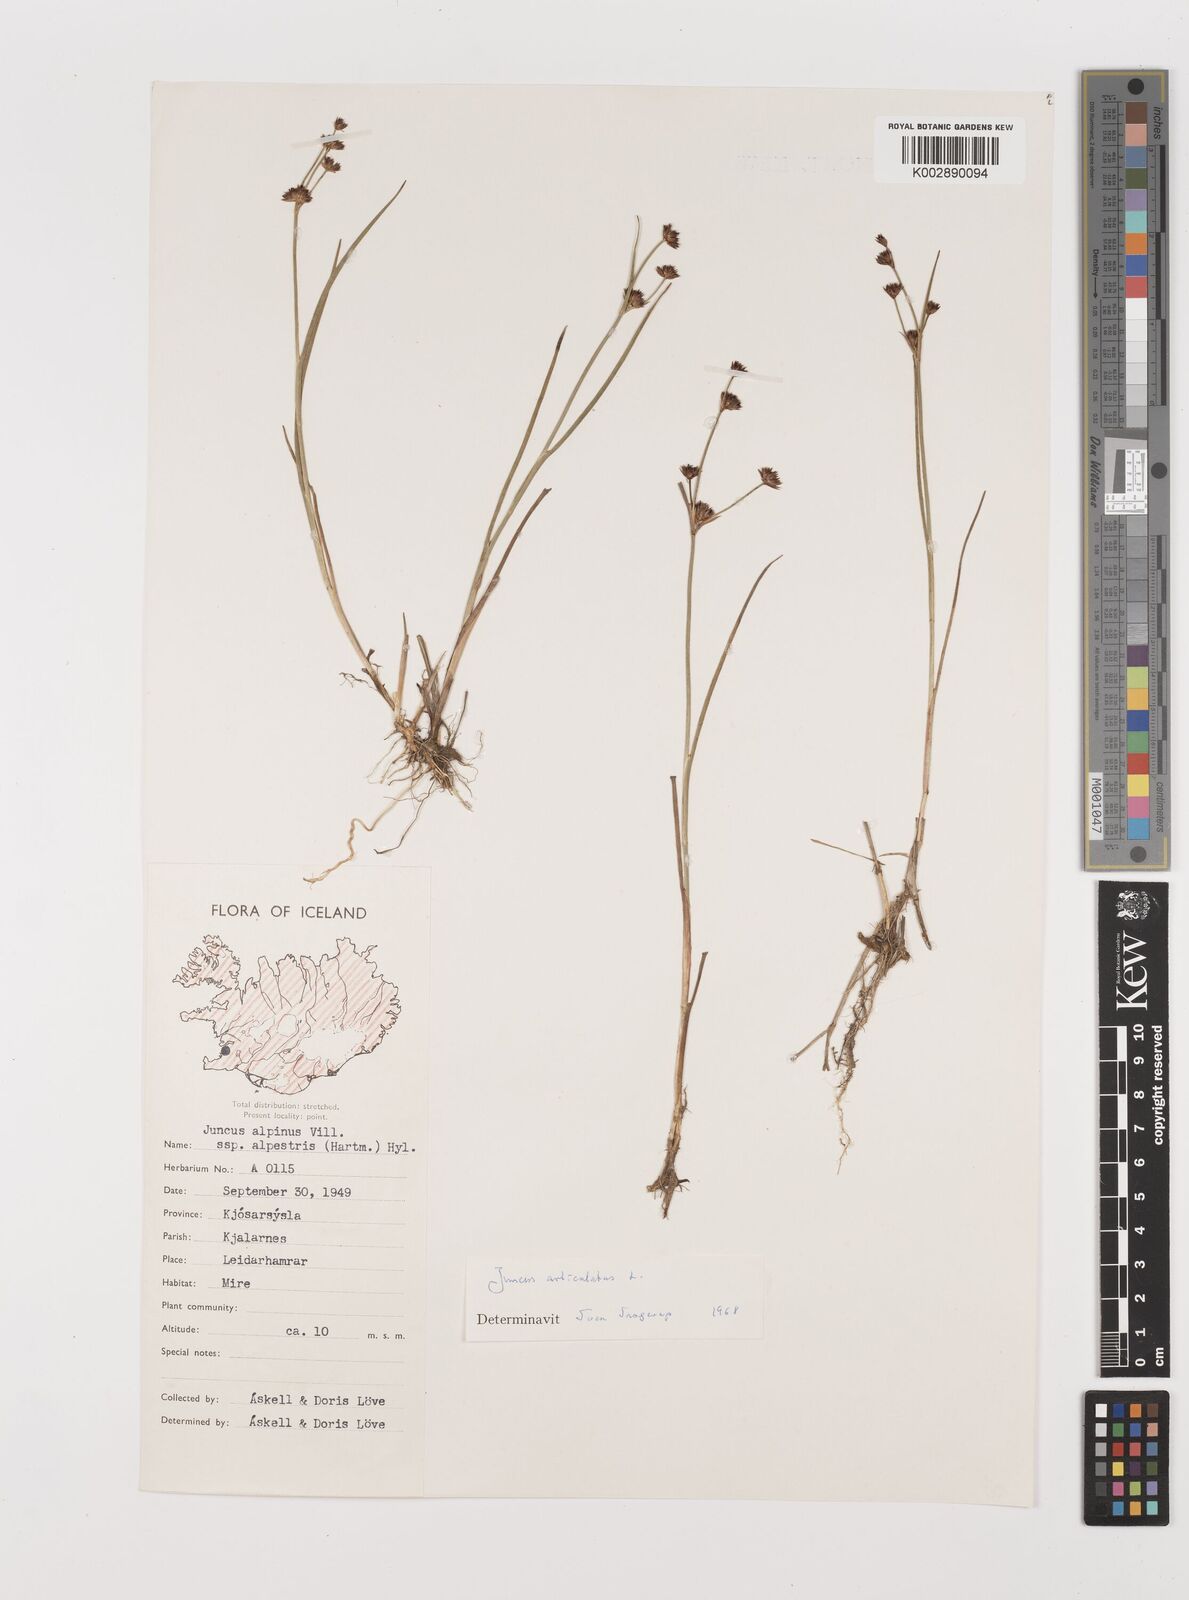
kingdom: Plantae
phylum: Tracheophyta
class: Liliopsida
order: Poales
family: Juncaceae
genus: Juncus
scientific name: Juncus articulatus
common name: Jointed rush
